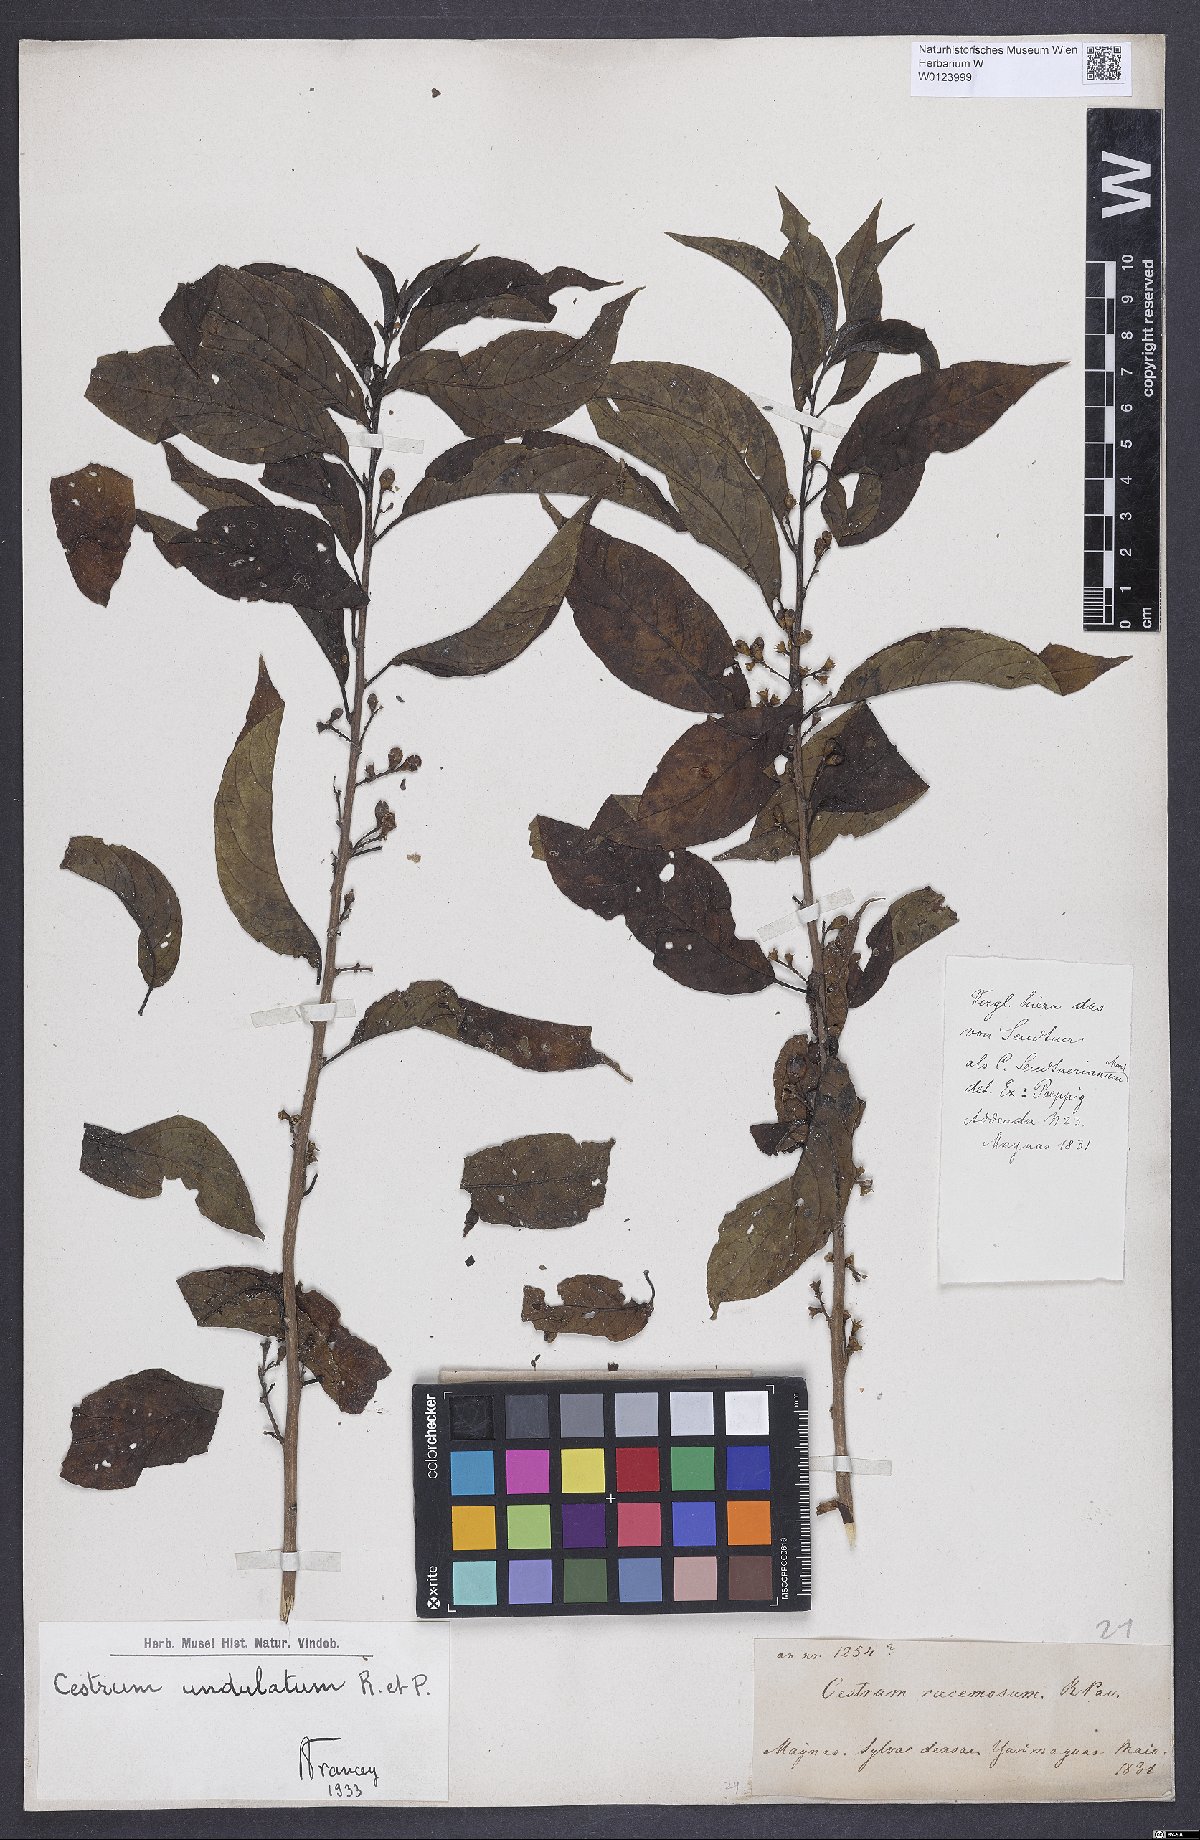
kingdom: Plantae
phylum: Tracheophyta
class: Magnoliopsida
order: Solanales
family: Solanaceae
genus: Cestrum
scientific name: Cestrum undulatum
